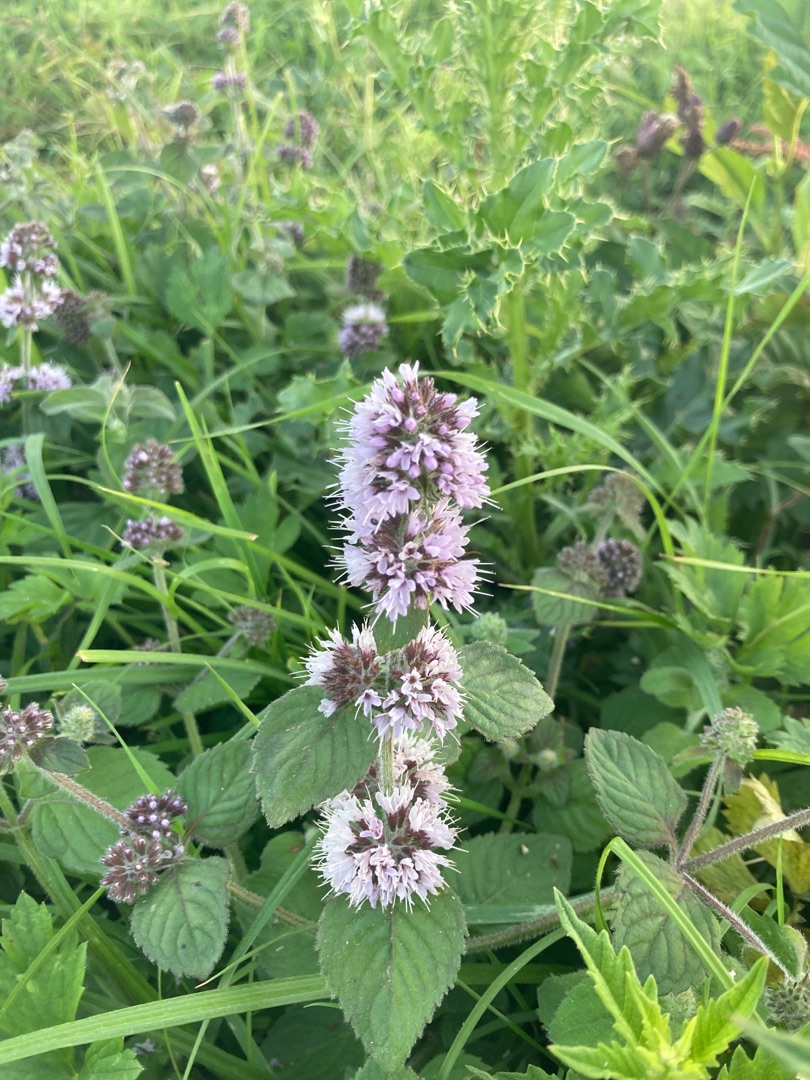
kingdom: Plantae
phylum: Tracheophyta
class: Magnoliopsida
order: Lamiales
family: Lamiaceae
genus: Mentha
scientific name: Mentha aquatica
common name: Vand-mynte
